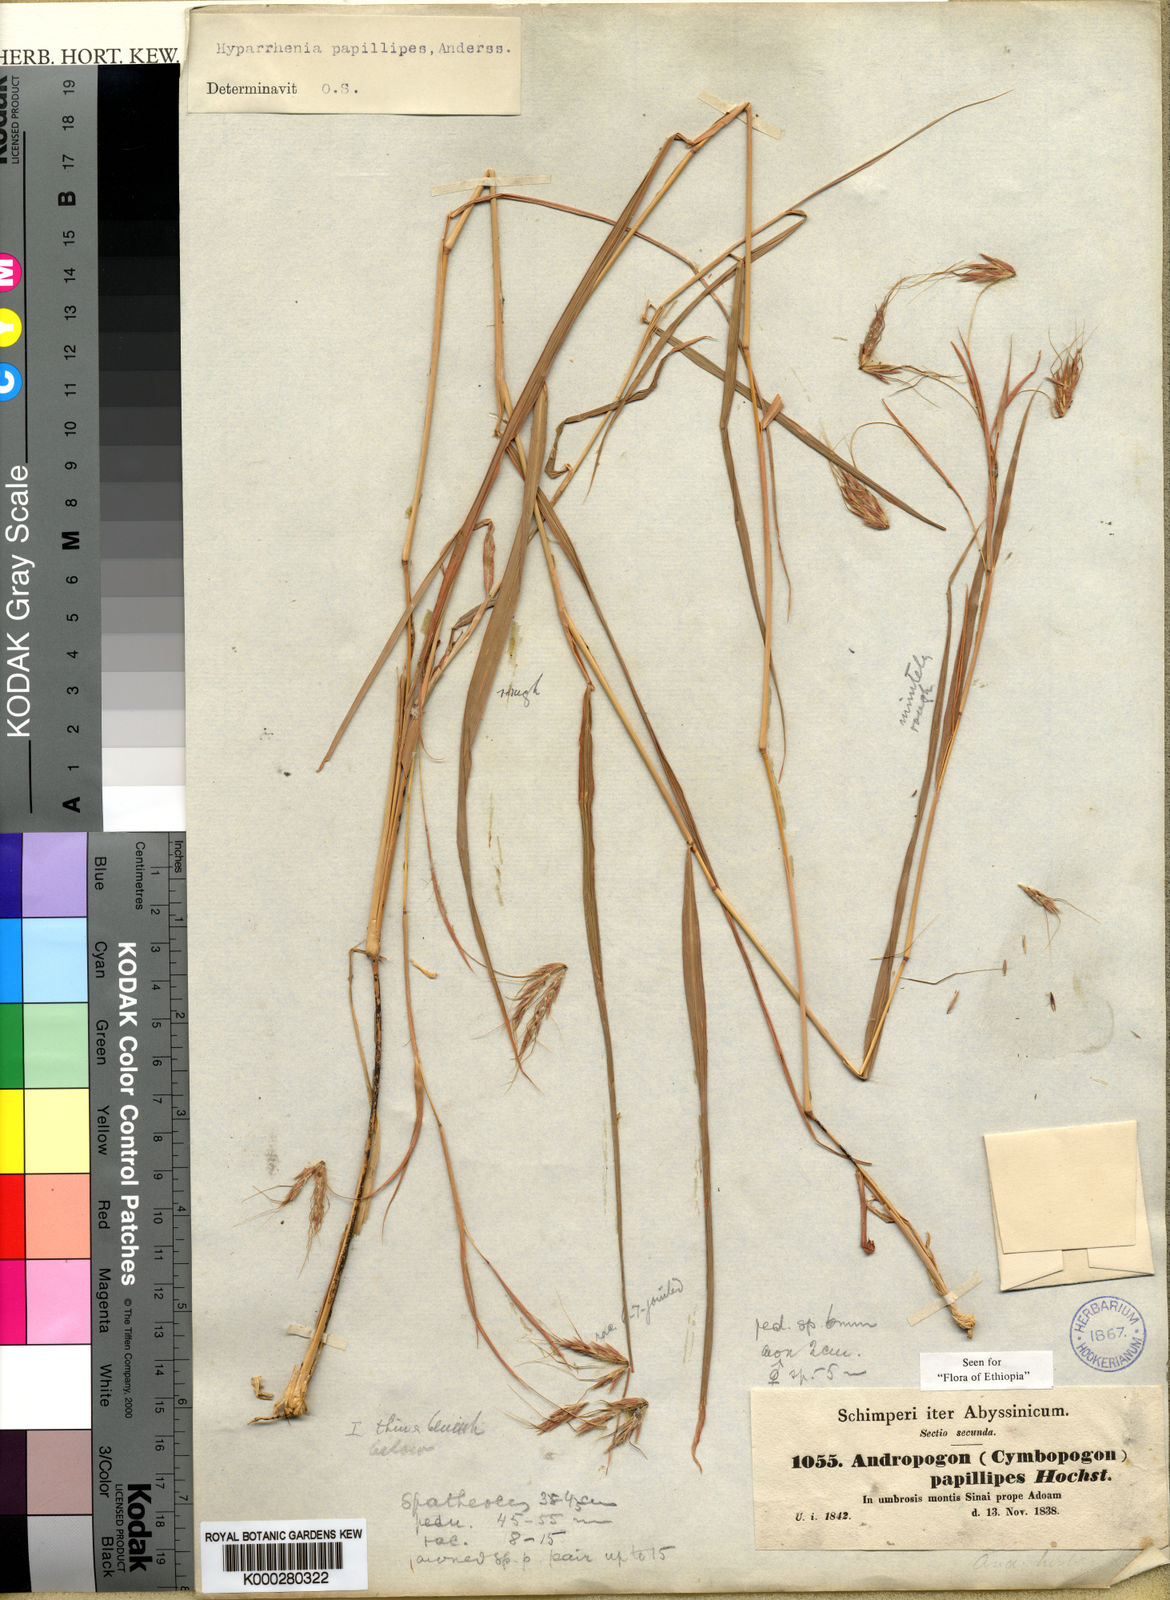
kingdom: Plantae
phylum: Tracheophyta
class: Liliopsida
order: Poales
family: Poaceae
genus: Hyparrhenia
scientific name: Hyparrhenia
